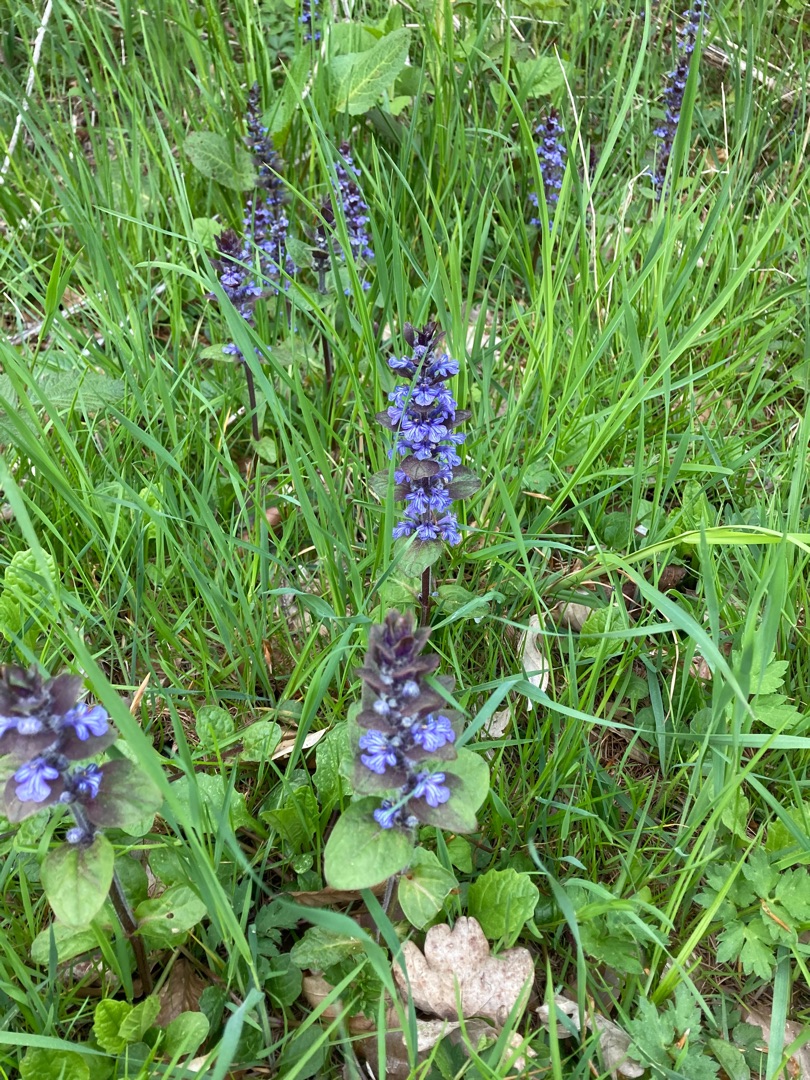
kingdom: Plantae
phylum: Tracheophyta
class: Magnoliopsida
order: Lamiales
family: Lamiaceae
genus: Ajuga
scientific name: Ajuga reptans
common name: Krybende læbeløs
